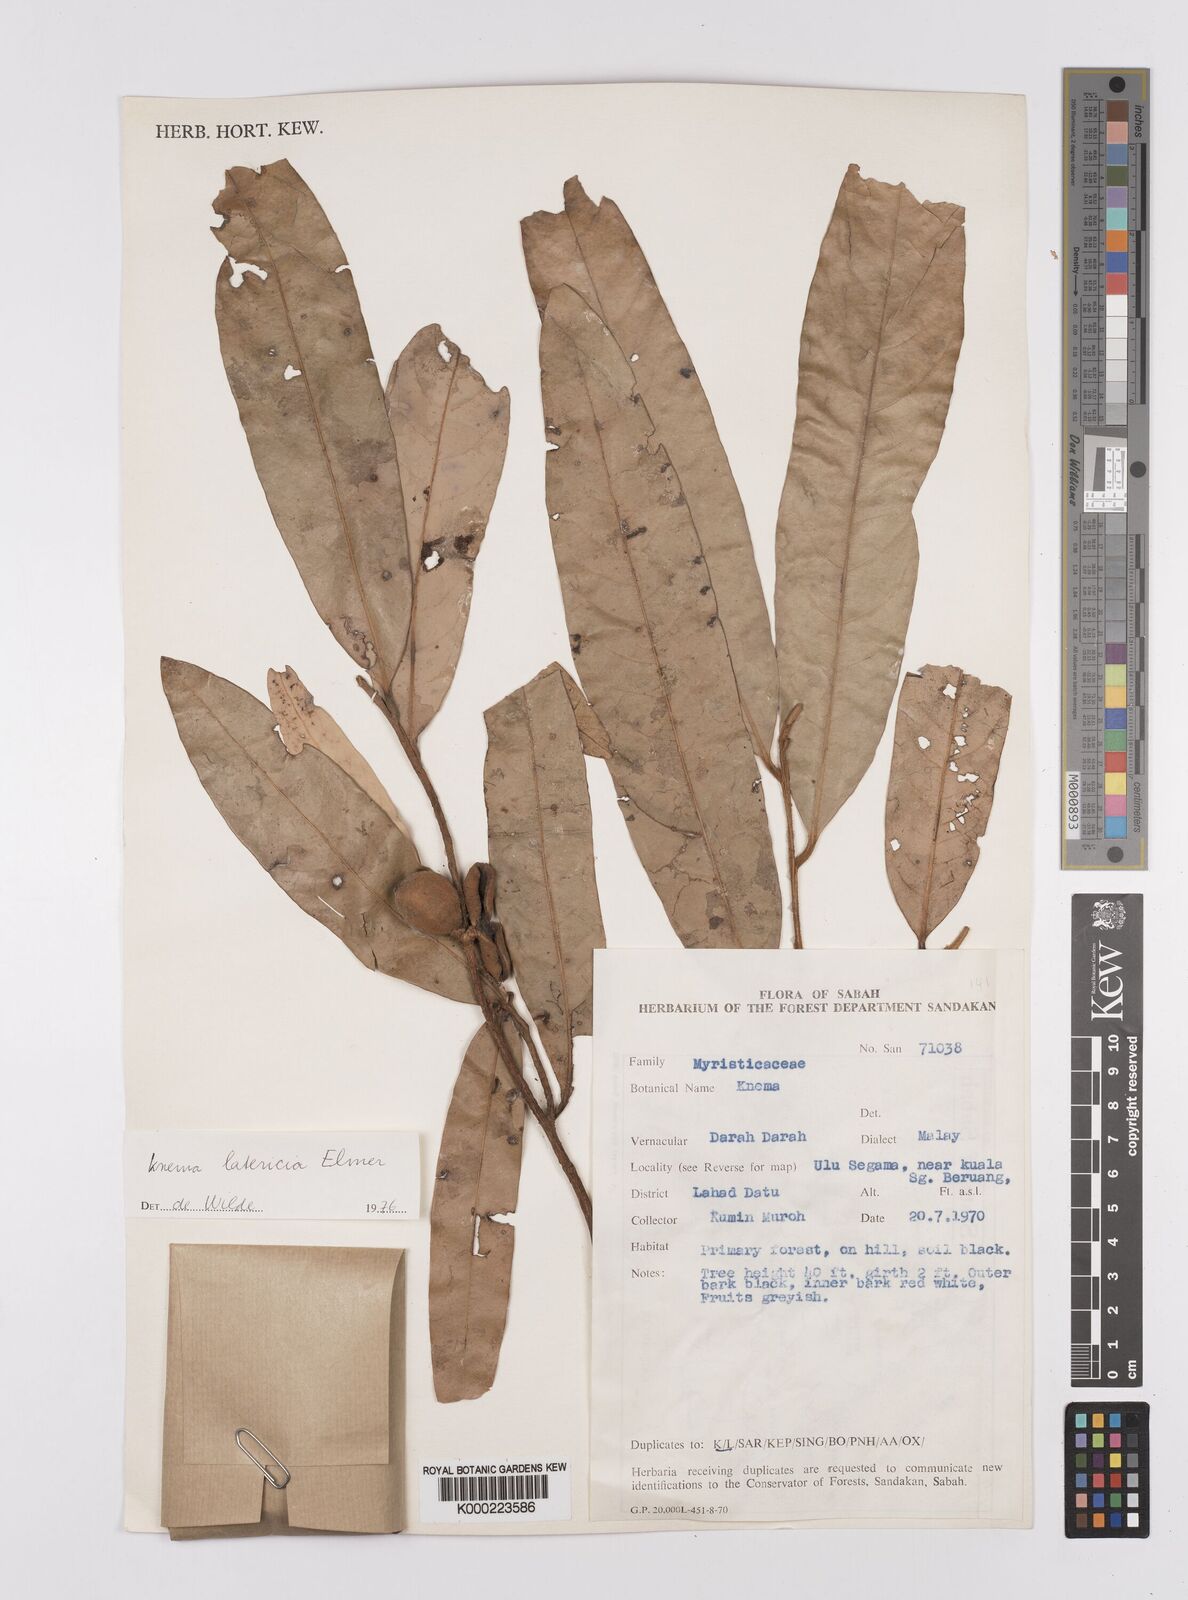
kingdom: Plantae
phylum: Tracheophyta
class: Magnoliopsida
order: Magnoliales
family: Myristicaceae
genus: Knema
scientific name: Knema latericia
